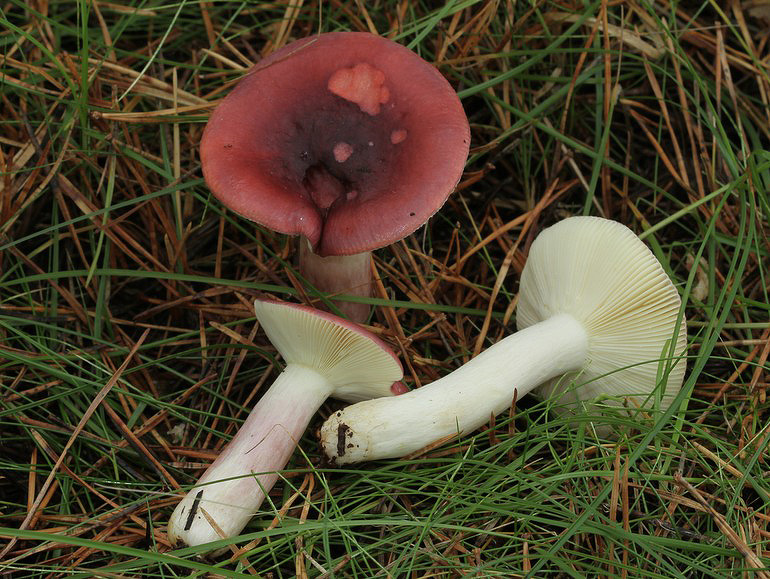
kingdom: Fungi
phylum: Basidiomycota
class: Agaricomycetes
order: Russulales
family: Russulaceae
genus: Russula
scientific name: Russula sardonia
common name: citronbladet skørhat
